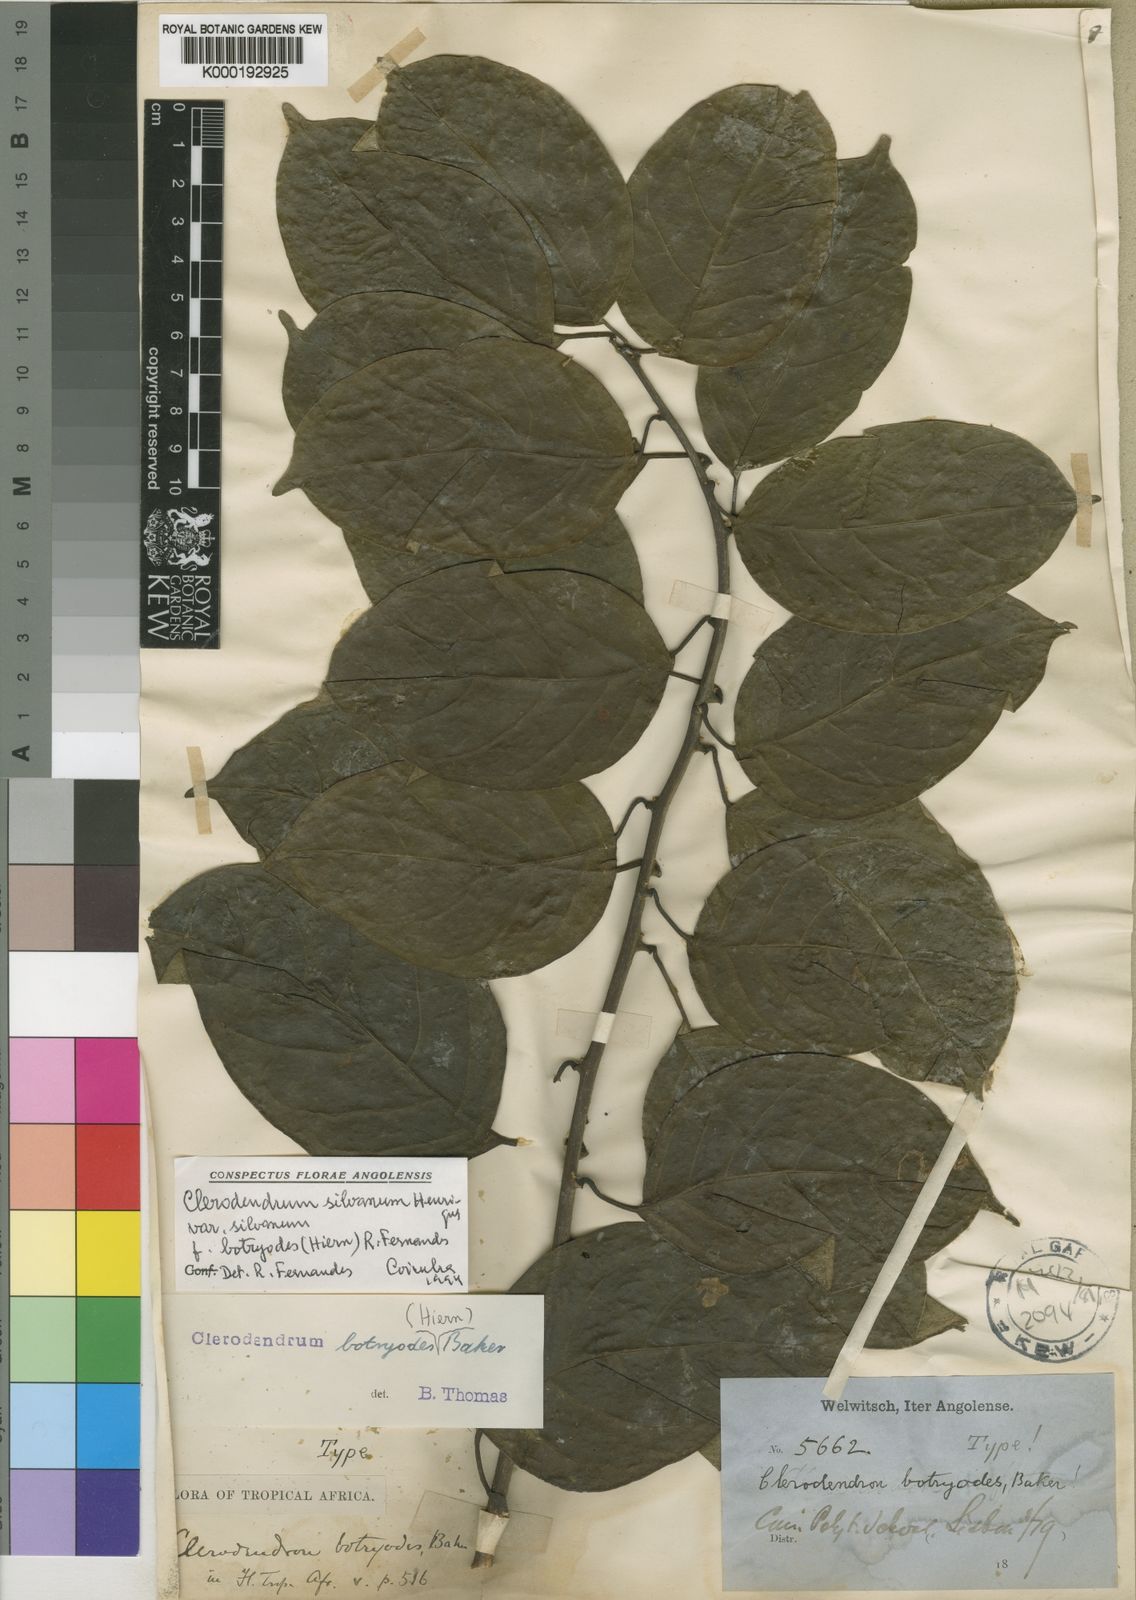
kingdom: Plantae
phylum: Tracheophyta
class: Magnoliopsida
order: Lamiales
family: Lamiaceae
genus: Clerodendrum
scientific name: Clerodendrum
